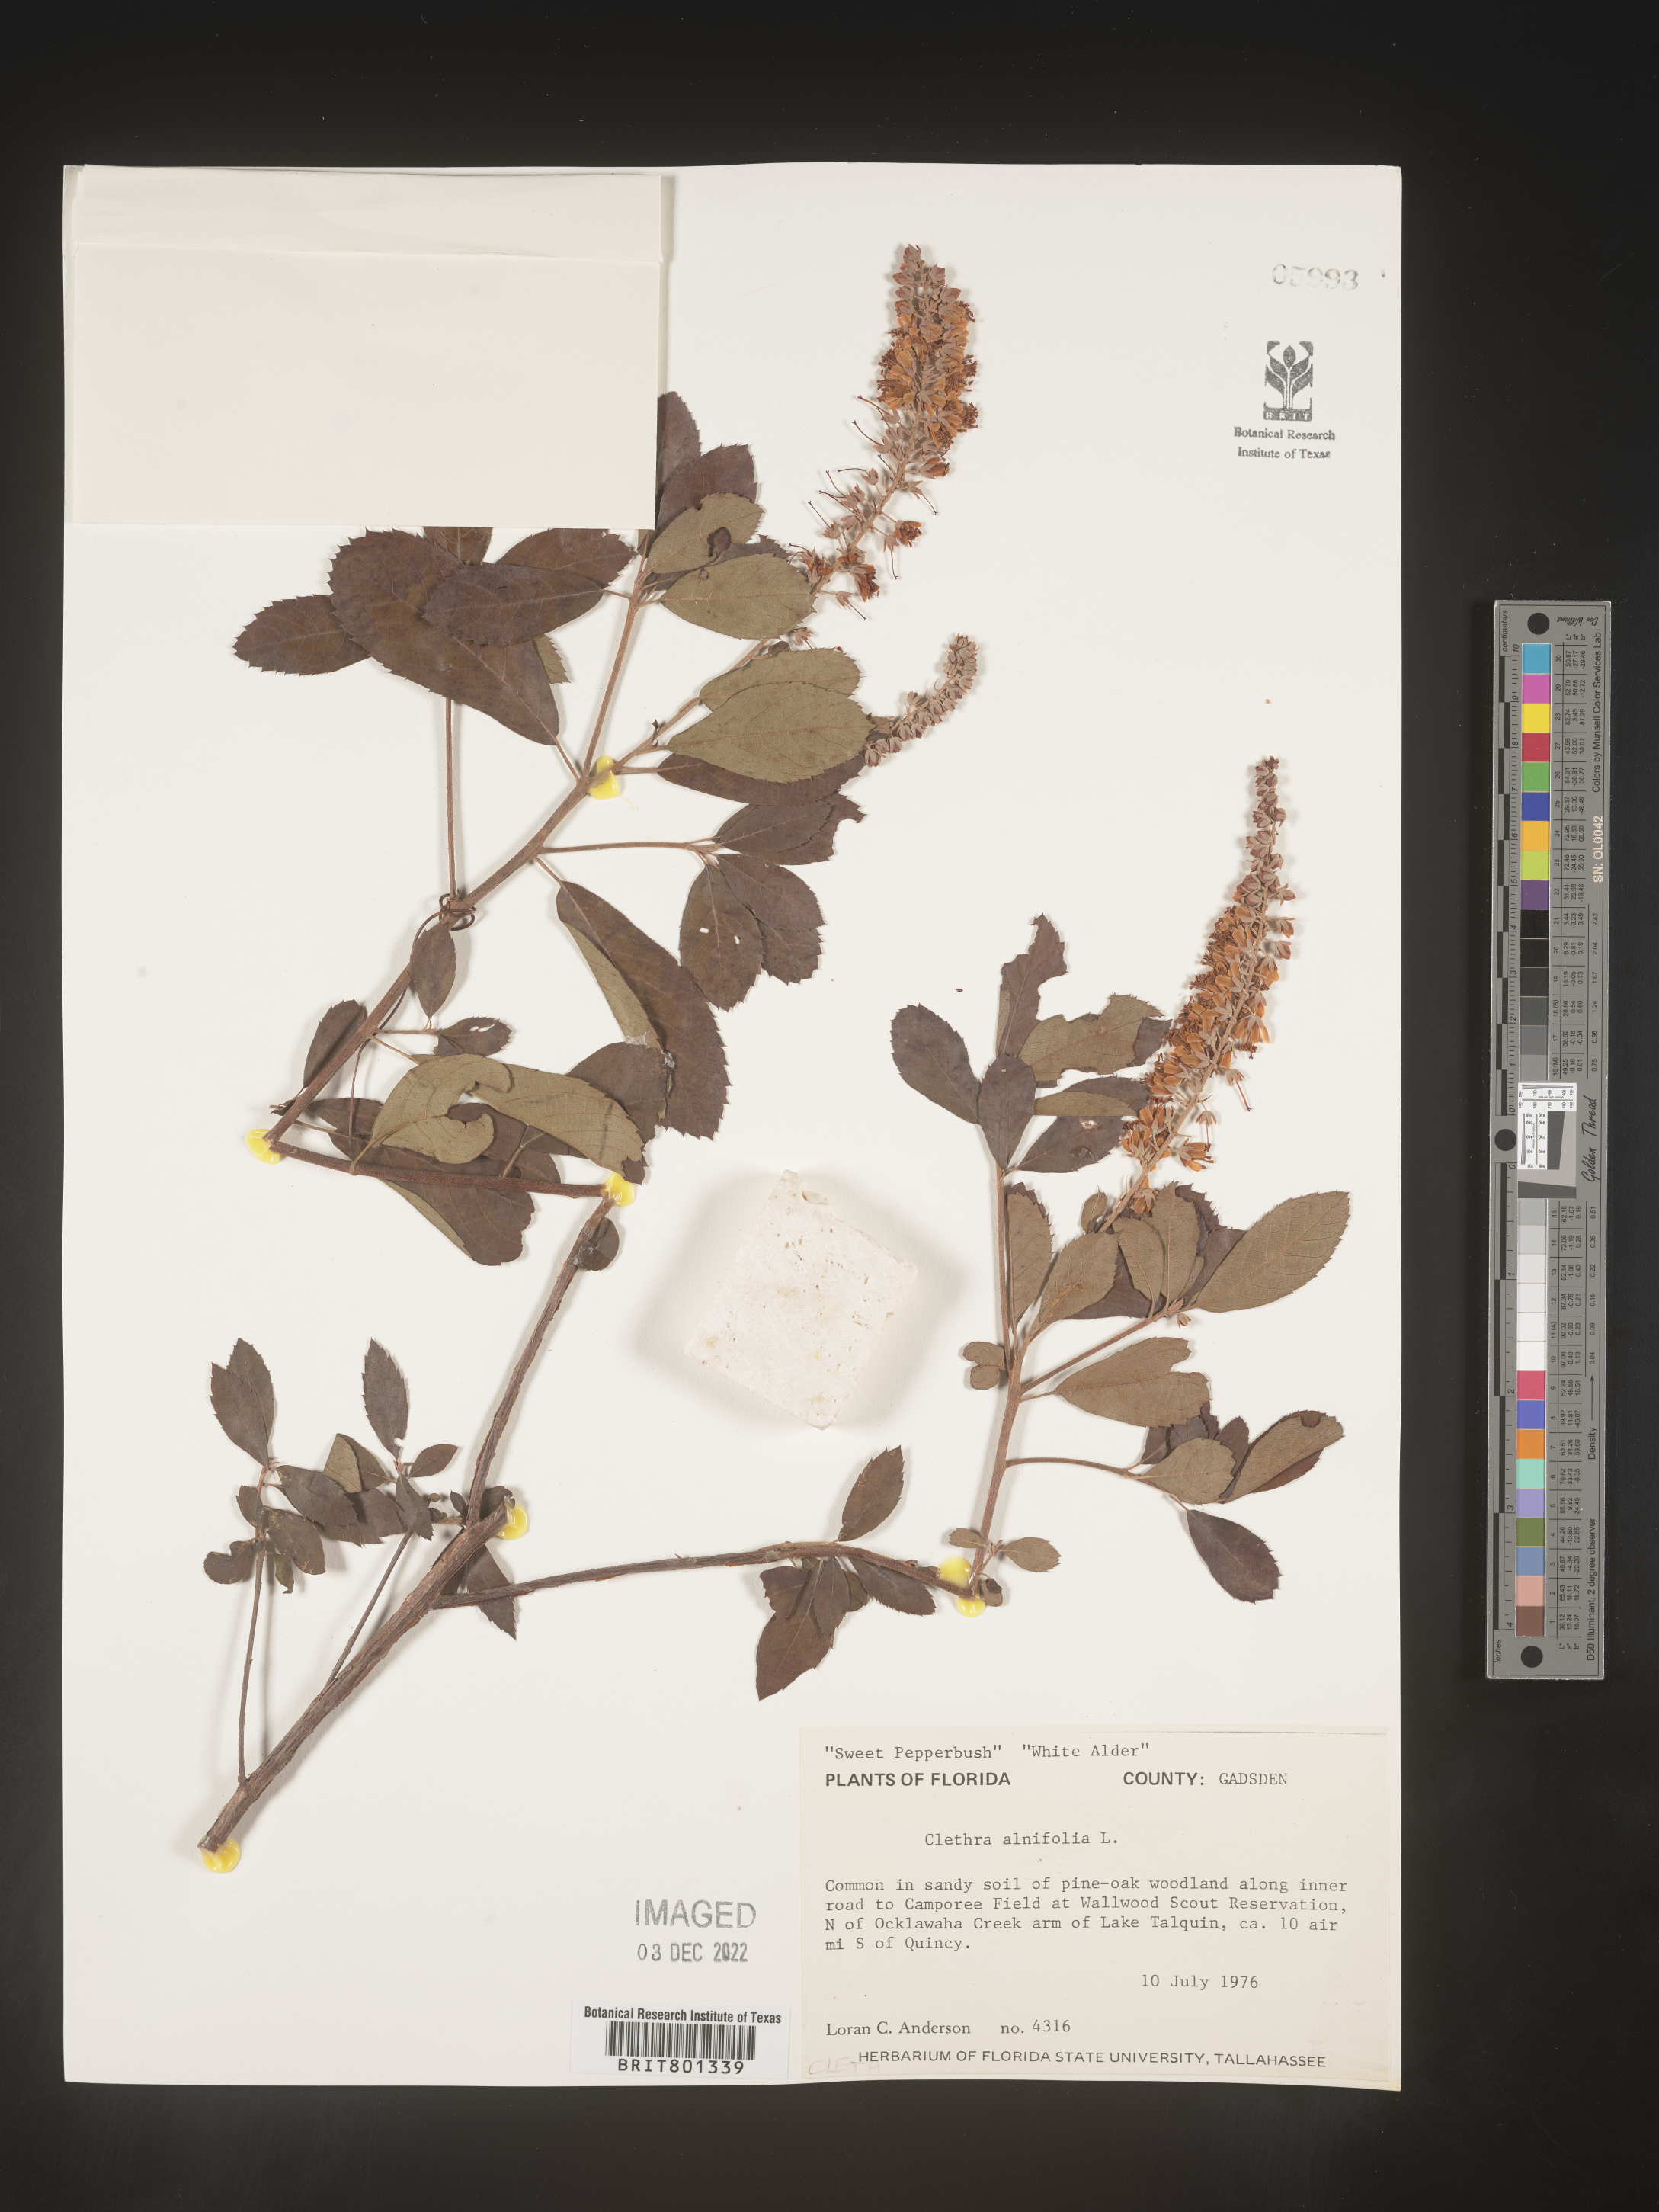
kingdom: Plantae
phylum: Tracheophyta
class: Magnoliopsida
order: Ericales
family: Clethraceae
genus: Clethra
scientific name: Clethra alnifolia
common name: Sweet pepperbush
